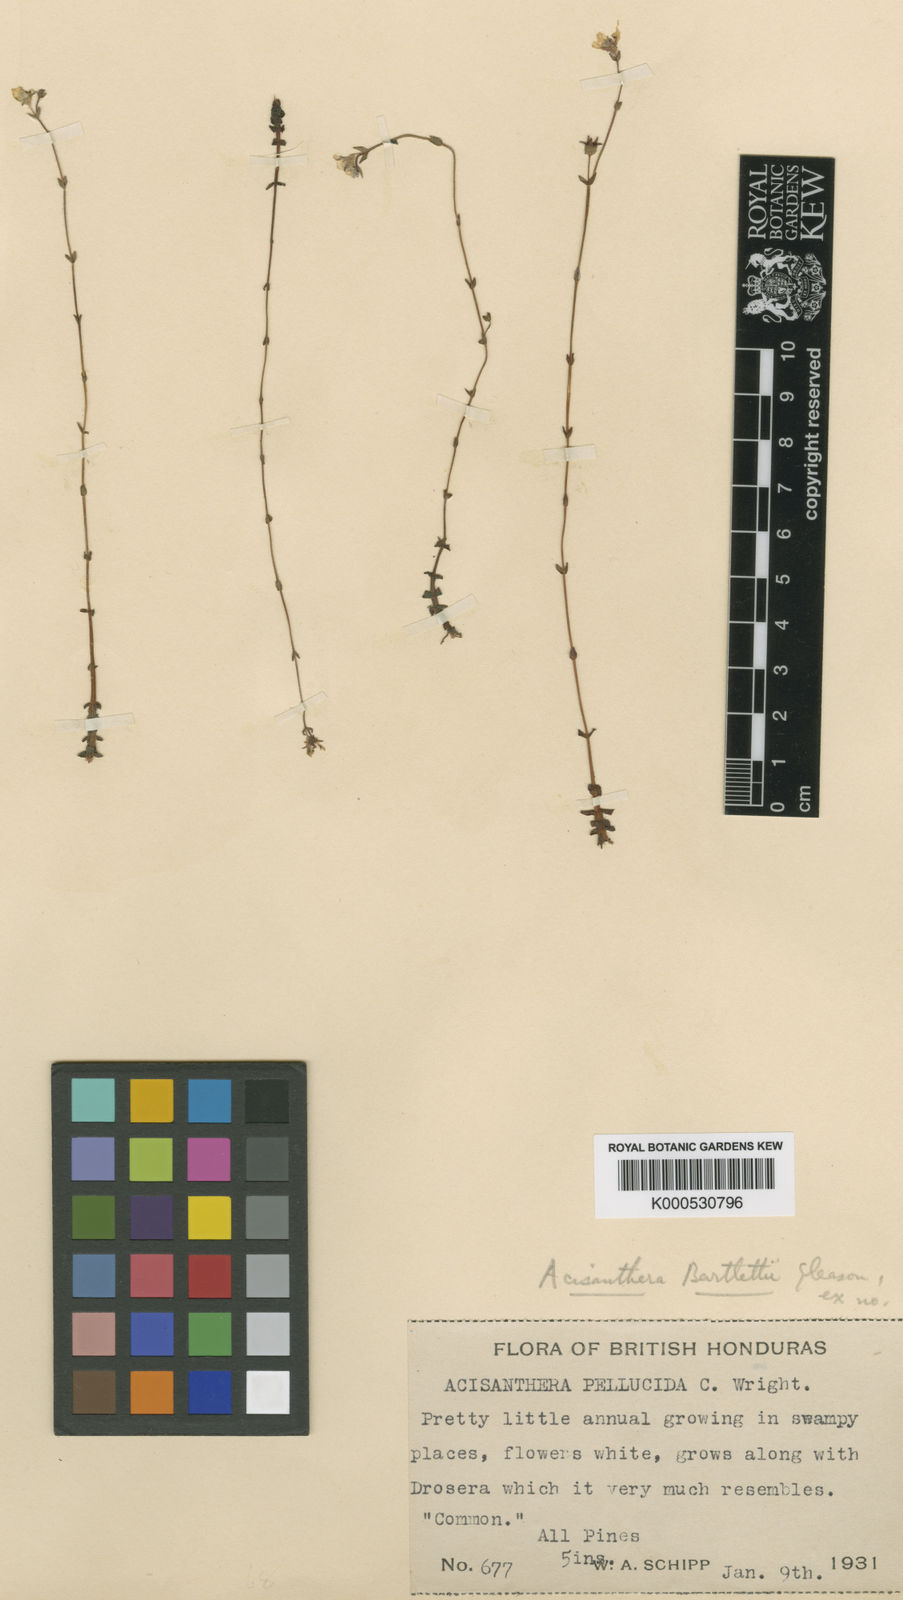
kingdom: Plantae
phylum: Tracheophyta
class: Magnoliopsida
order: Myrtales
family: Melastomataceae
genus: Noterophila
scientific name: Noterophila crassipes
